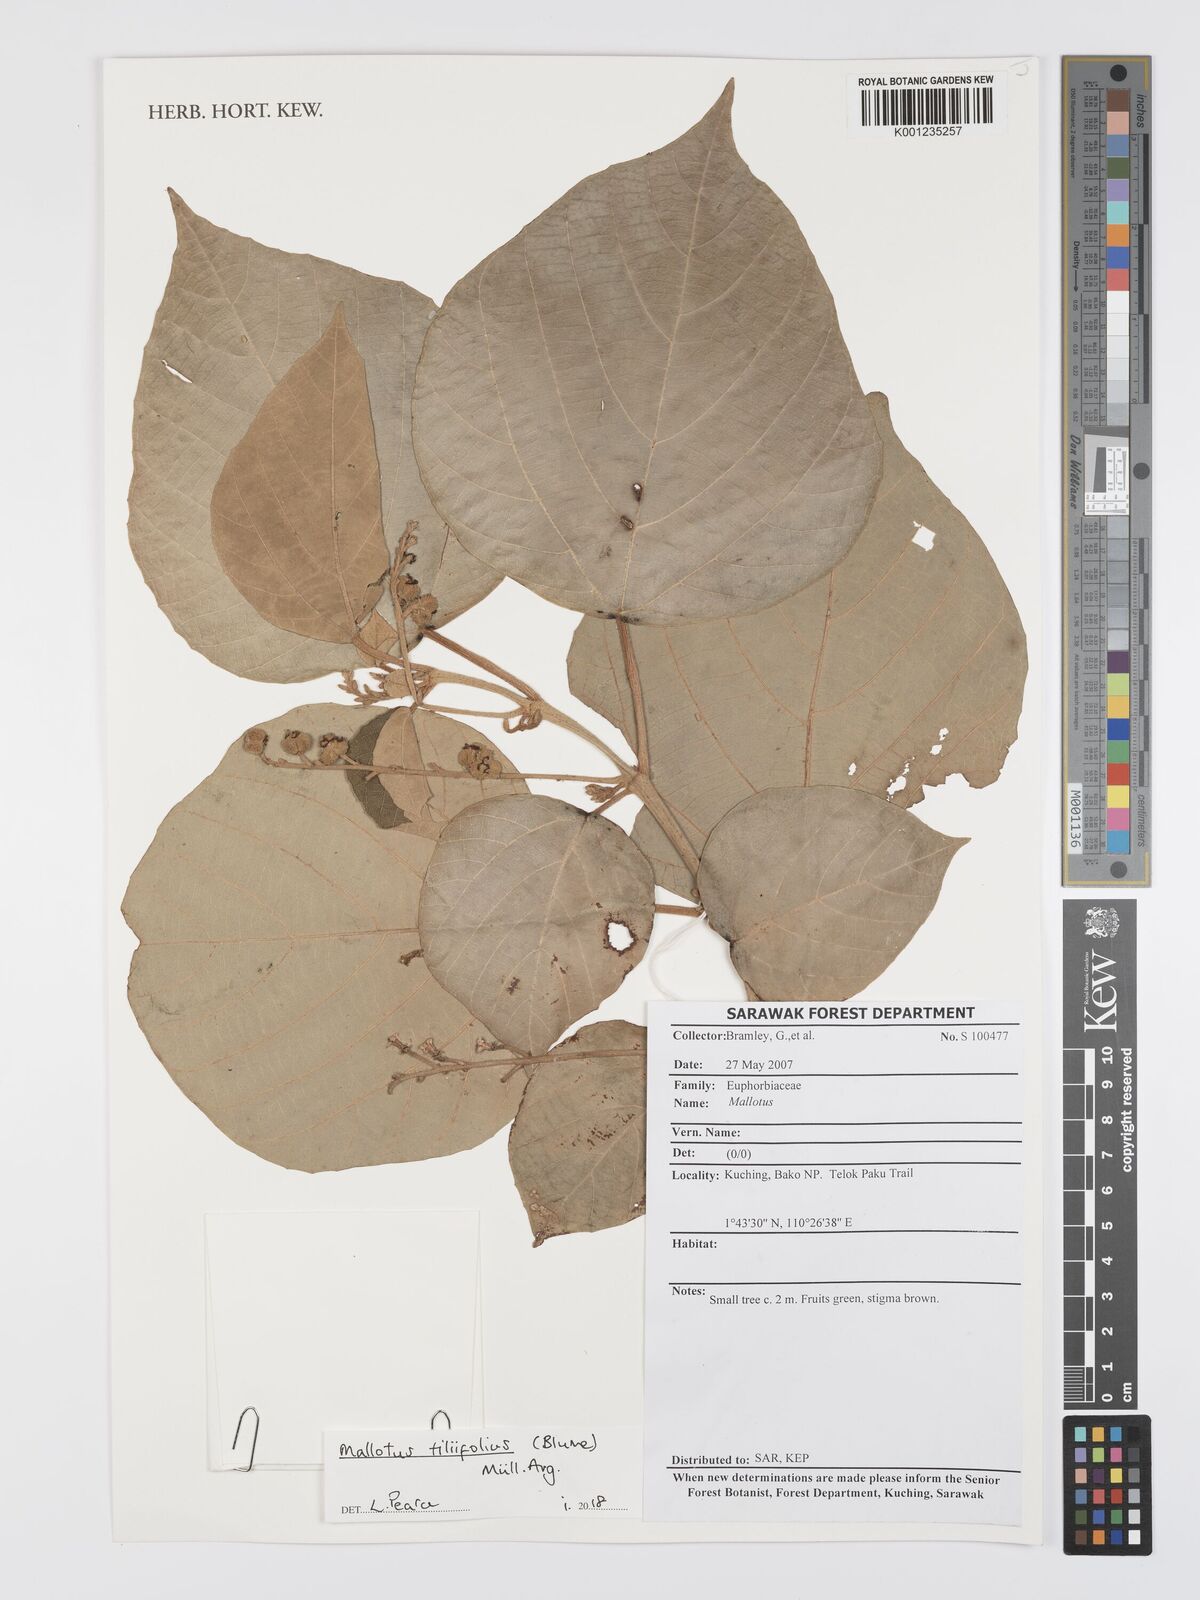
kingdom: Plantae
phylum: Tracheophyta
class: Magnoliopsida
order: Malpighiales
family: Euphorbiaceae
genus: Mallotus
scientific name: Mallotus tiliifolius
